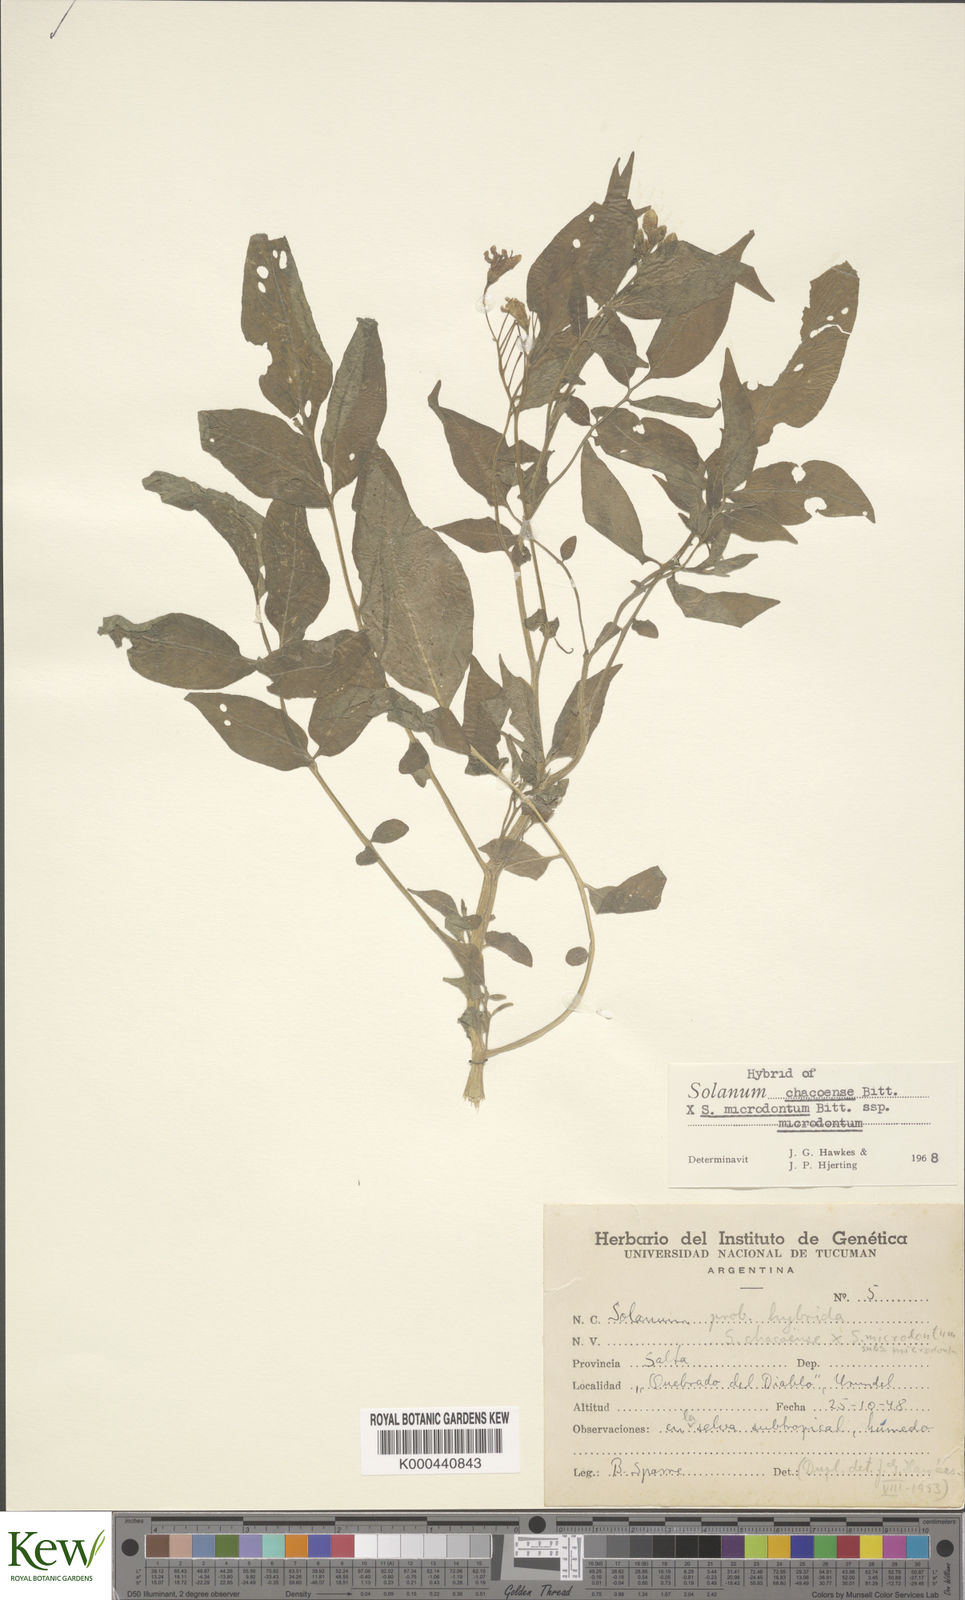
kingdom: Plantae
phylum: Tracheophyta
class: Magnoliopsida
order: Solanales
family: Solanaceae
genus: Solanum
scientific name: Solanum microdontum
